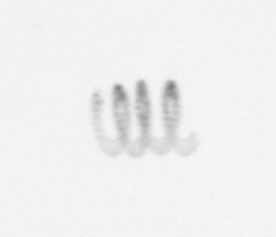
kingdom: Chromista
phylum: Ochrophyta
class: Bacillariophyceae
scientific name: Bacillariophyceae
